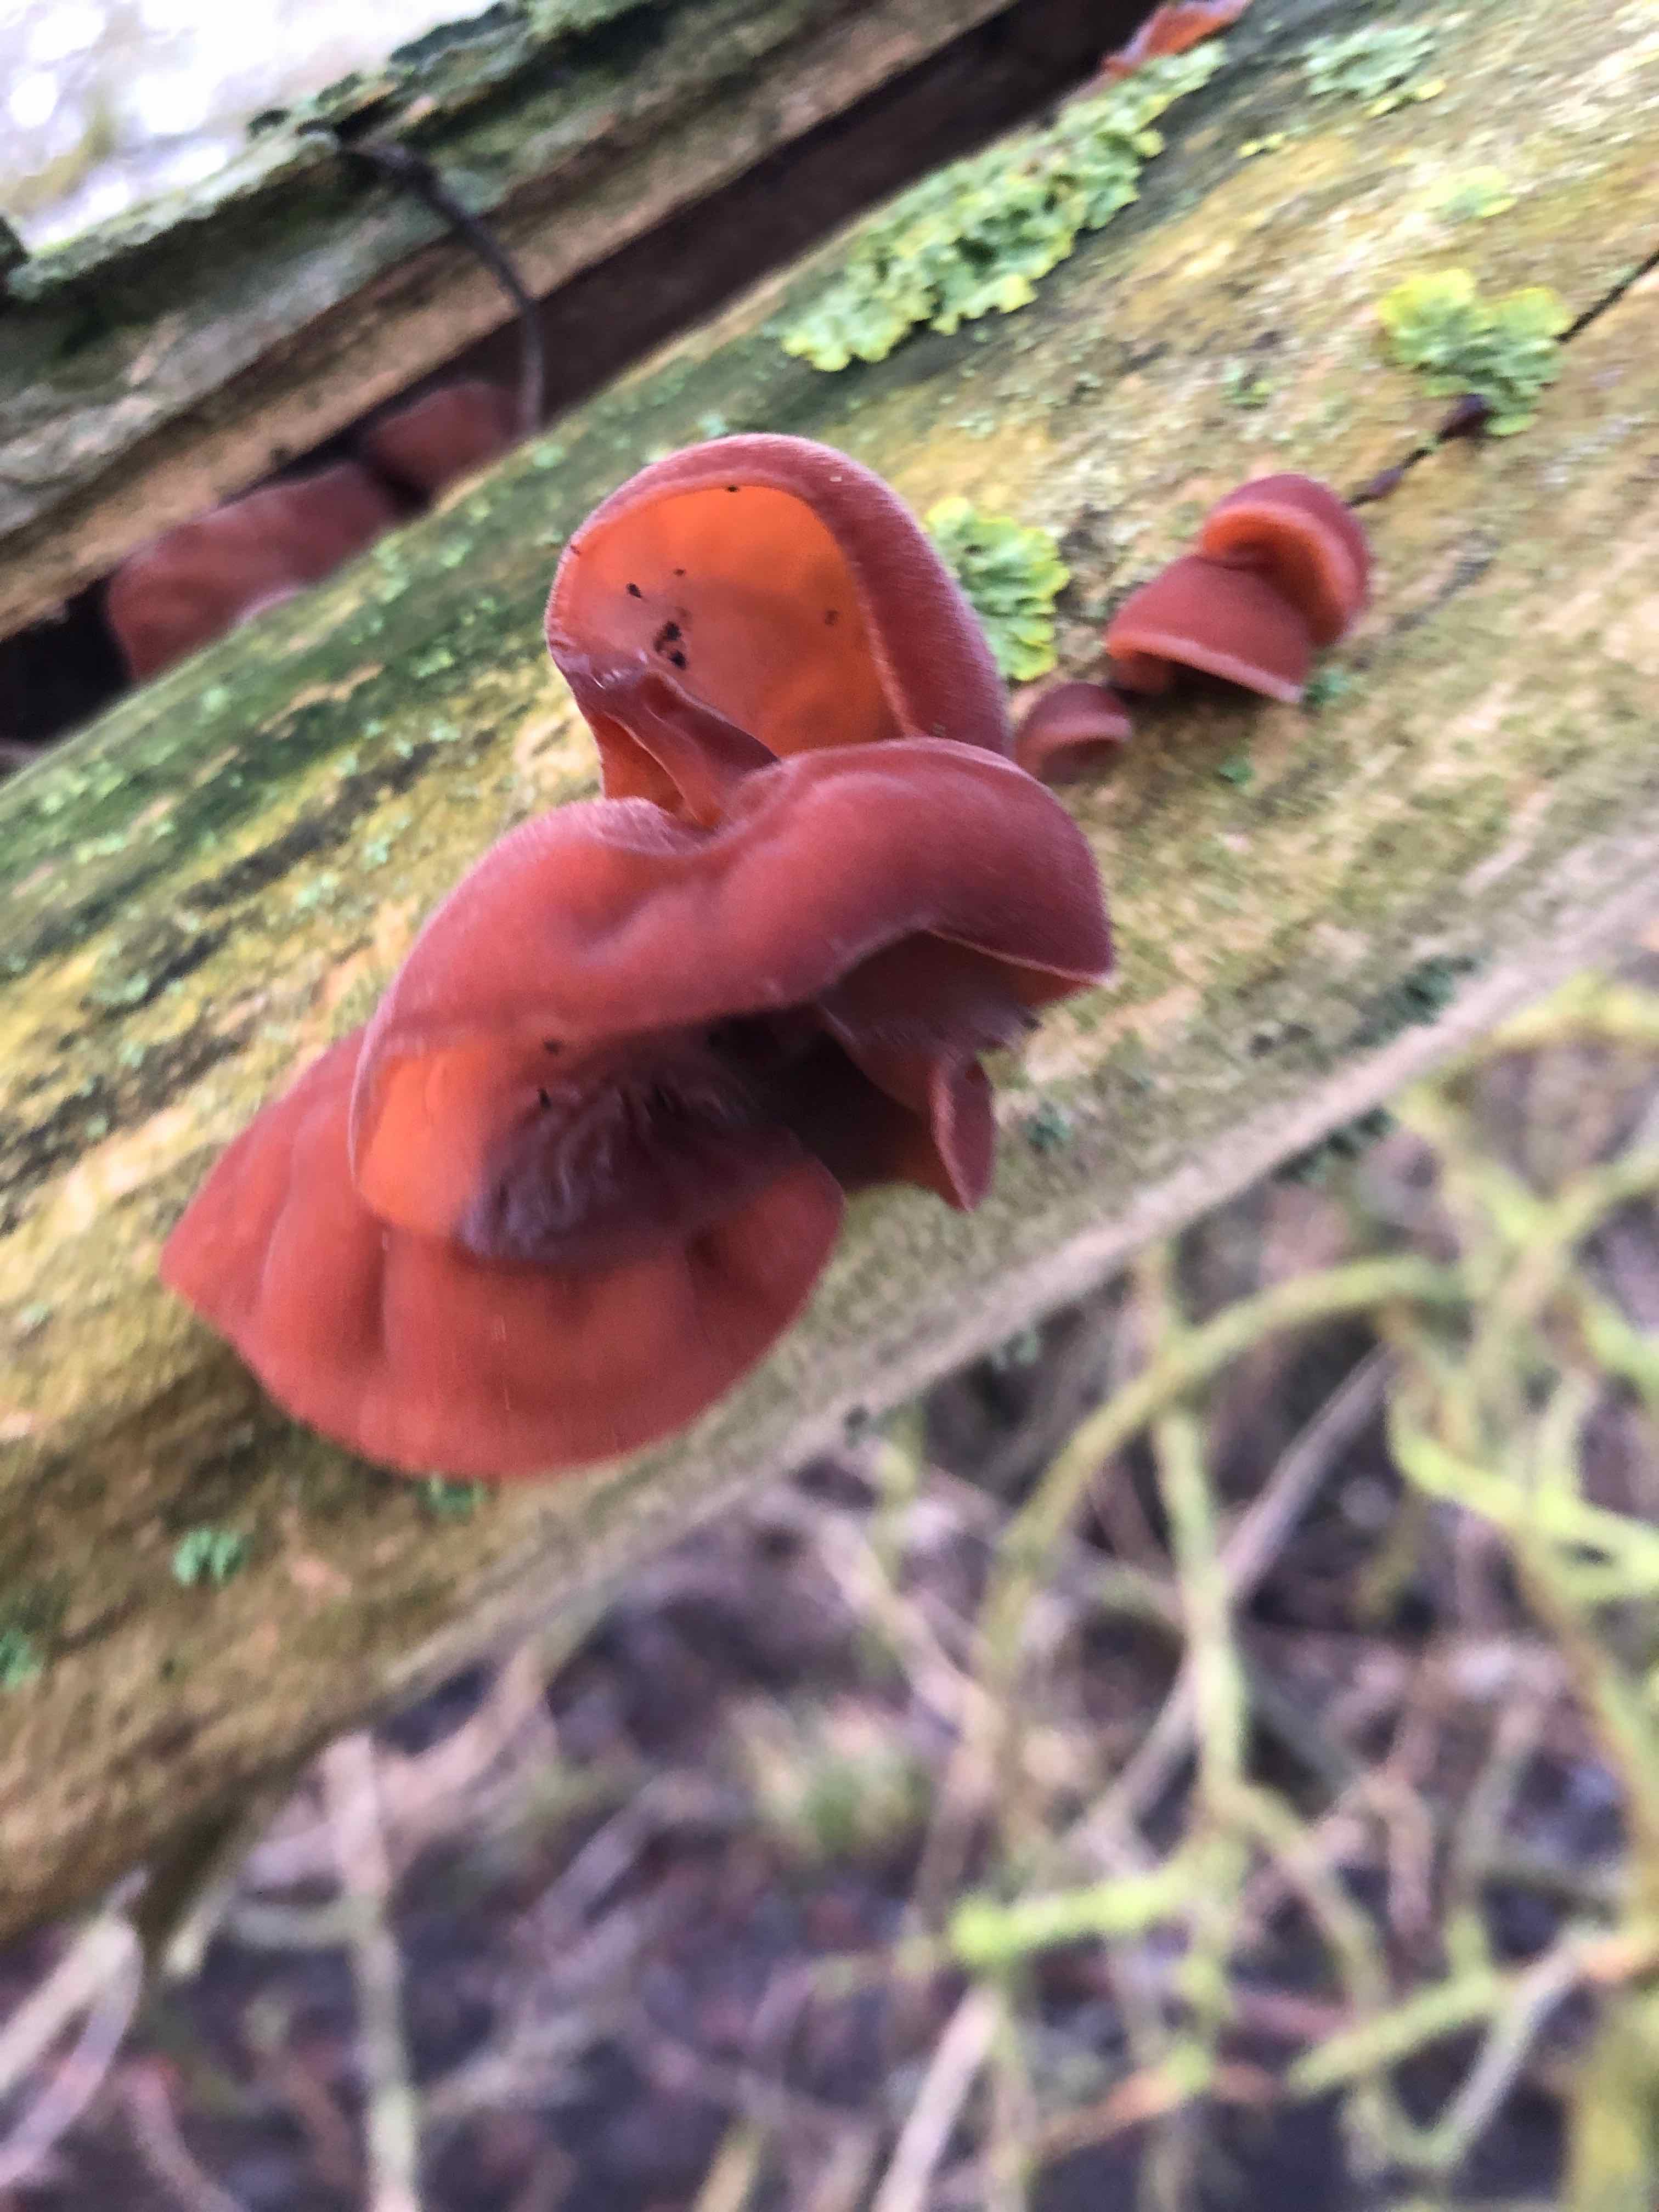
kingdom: Fungi
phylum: Basidiomycota
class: Agaricomycetes
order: Auriculariales
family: Auriculariaceae
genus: Auricularia
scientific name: Auricularia auricula-judae
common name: almindelig judasøre
